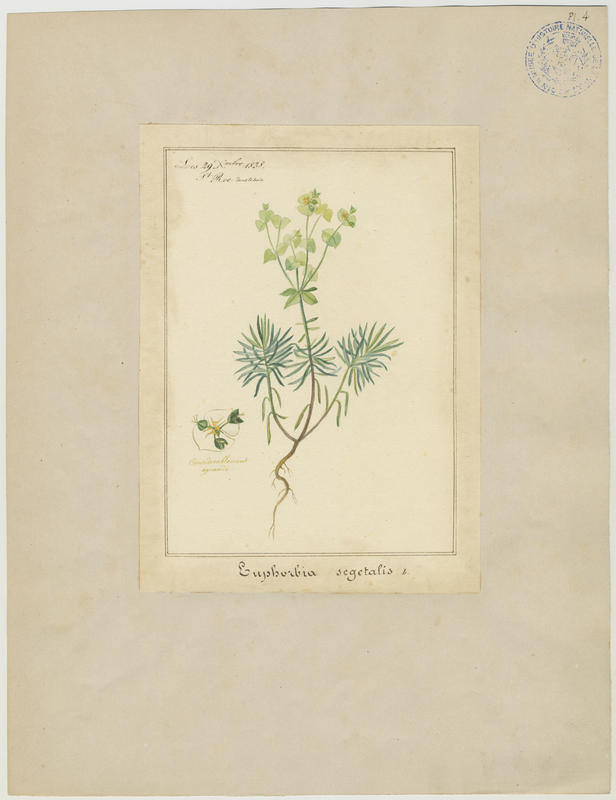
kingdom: Plantae
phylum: Tracheophyta
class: Magnoliopsida
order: Malpighiales
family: Euphorbiaceae
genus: Euphorbia
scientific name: Euphorbia segetalis
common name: Corn spurge
